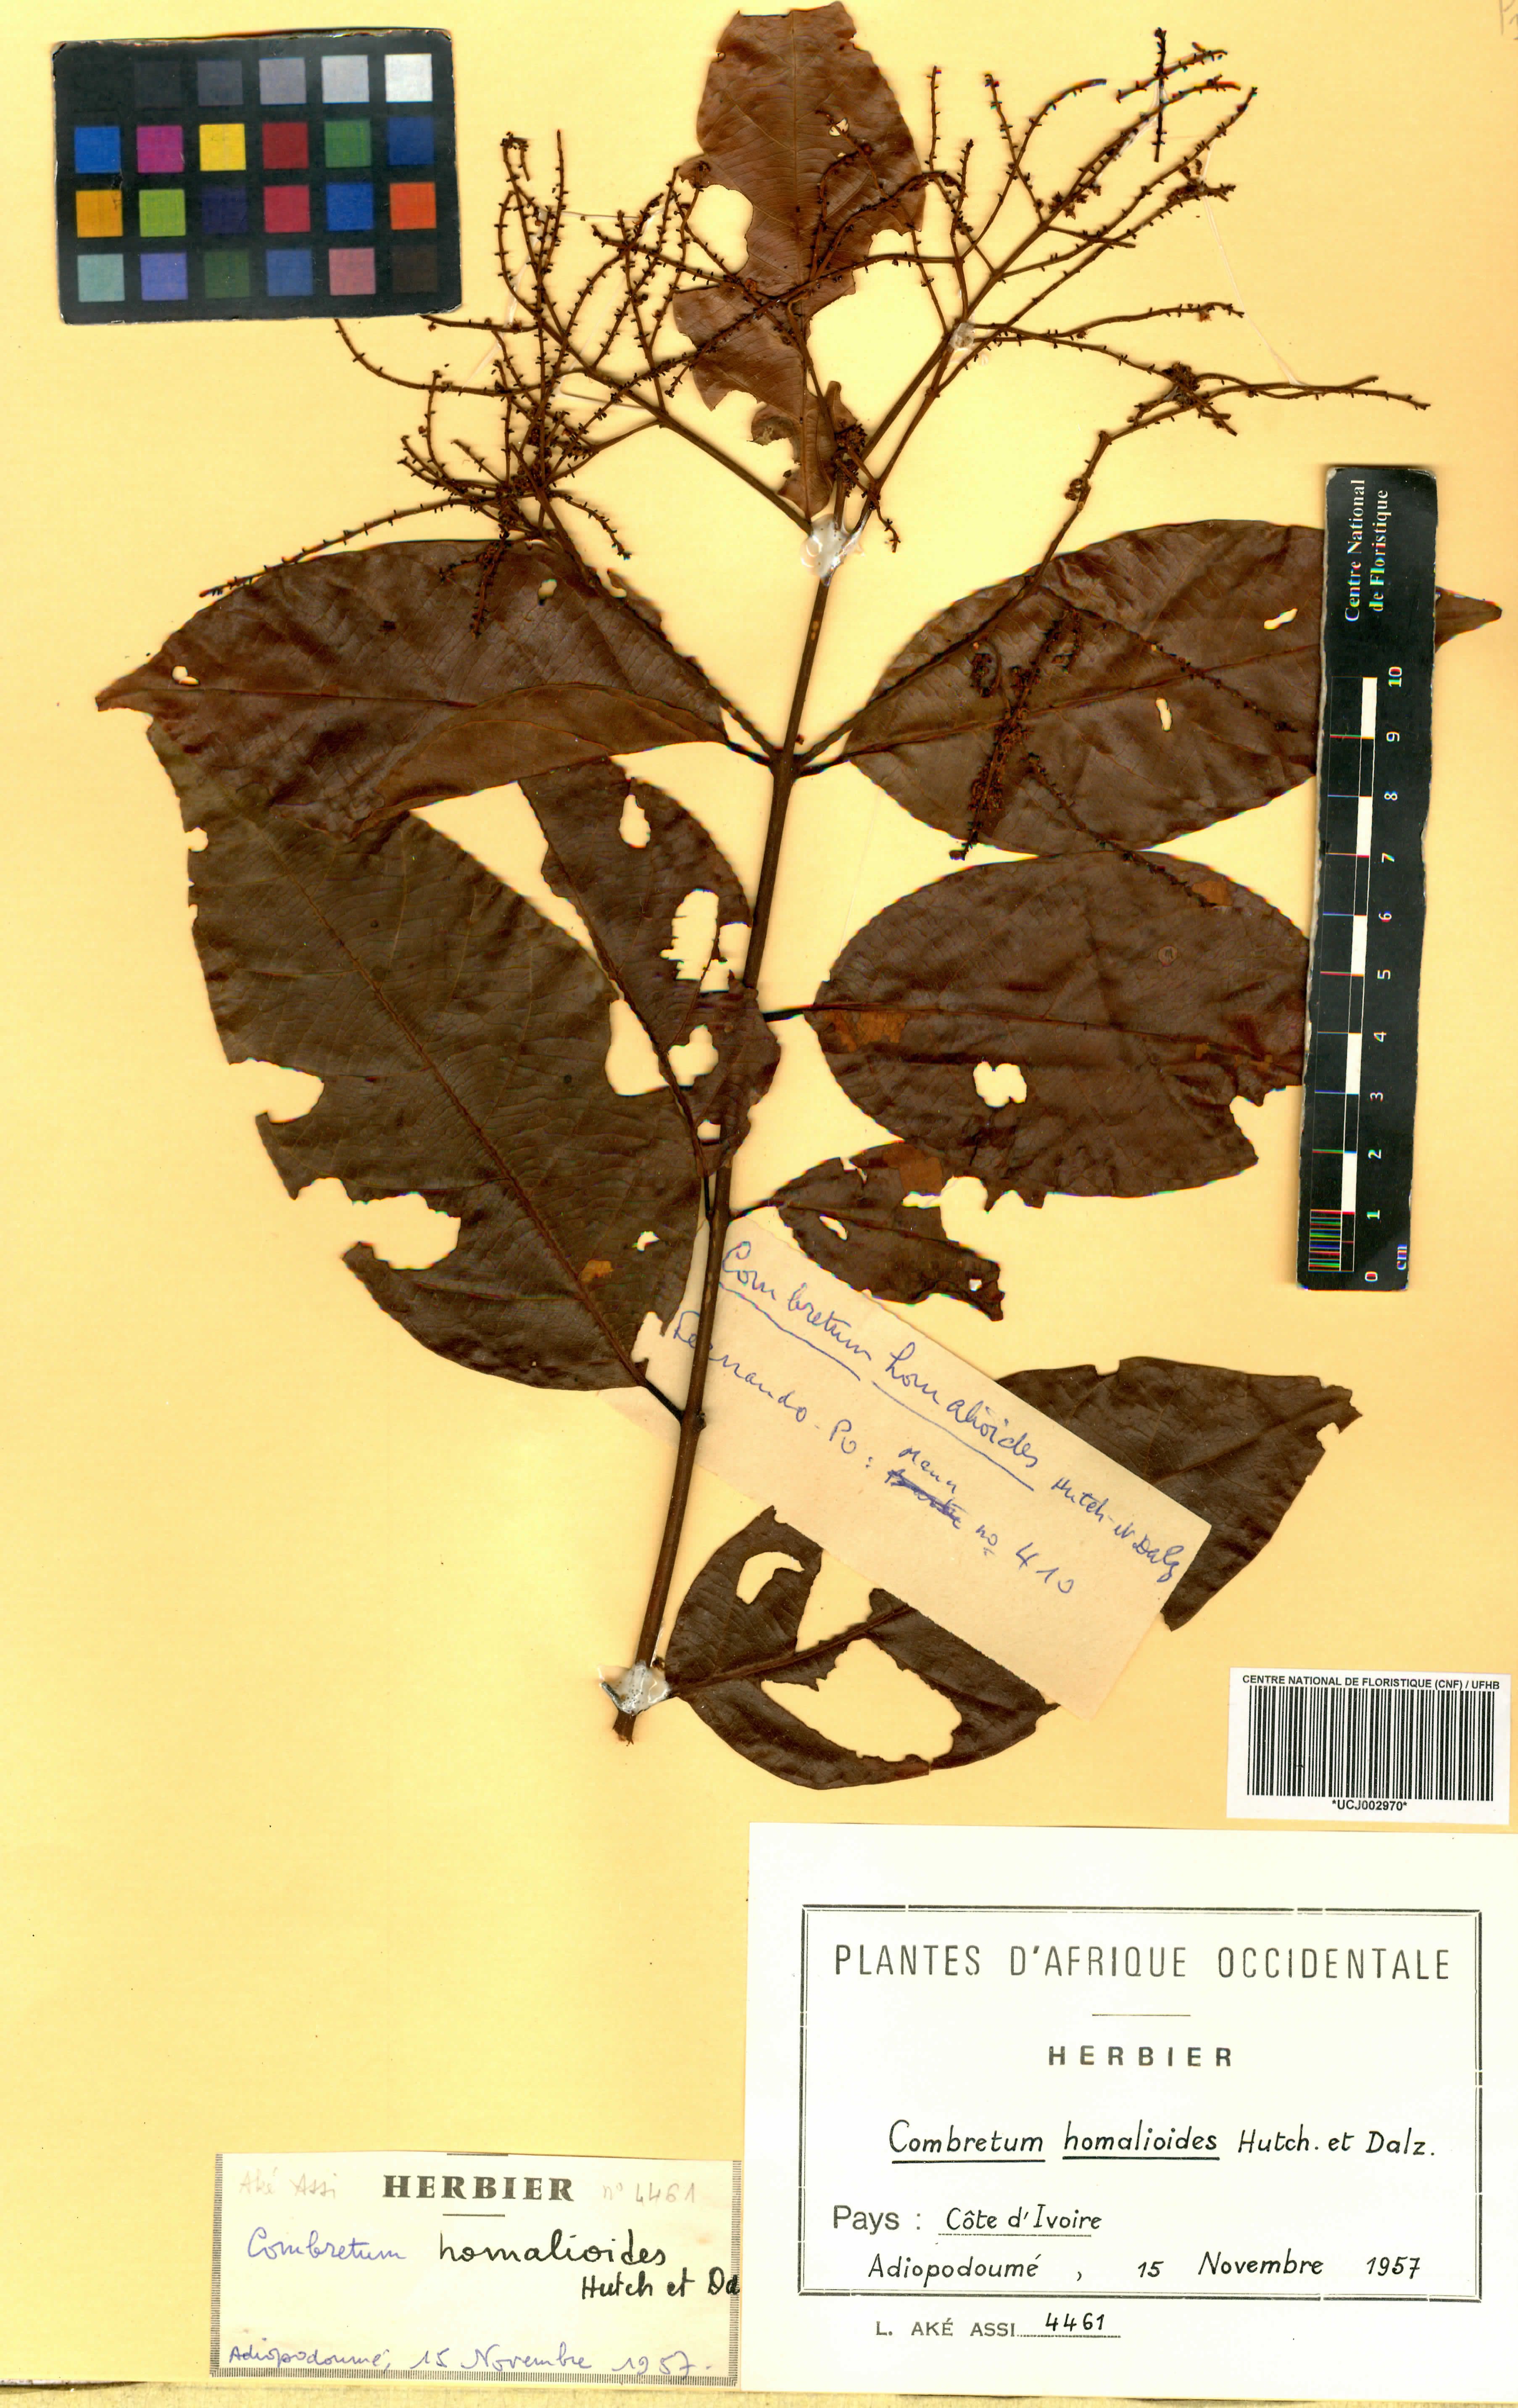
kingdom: Plantae
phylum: Tracheophyta
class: Magnoliopsida
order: Myrtales
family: Combretaceae
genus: Combretum
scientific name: Combretum homalioides
